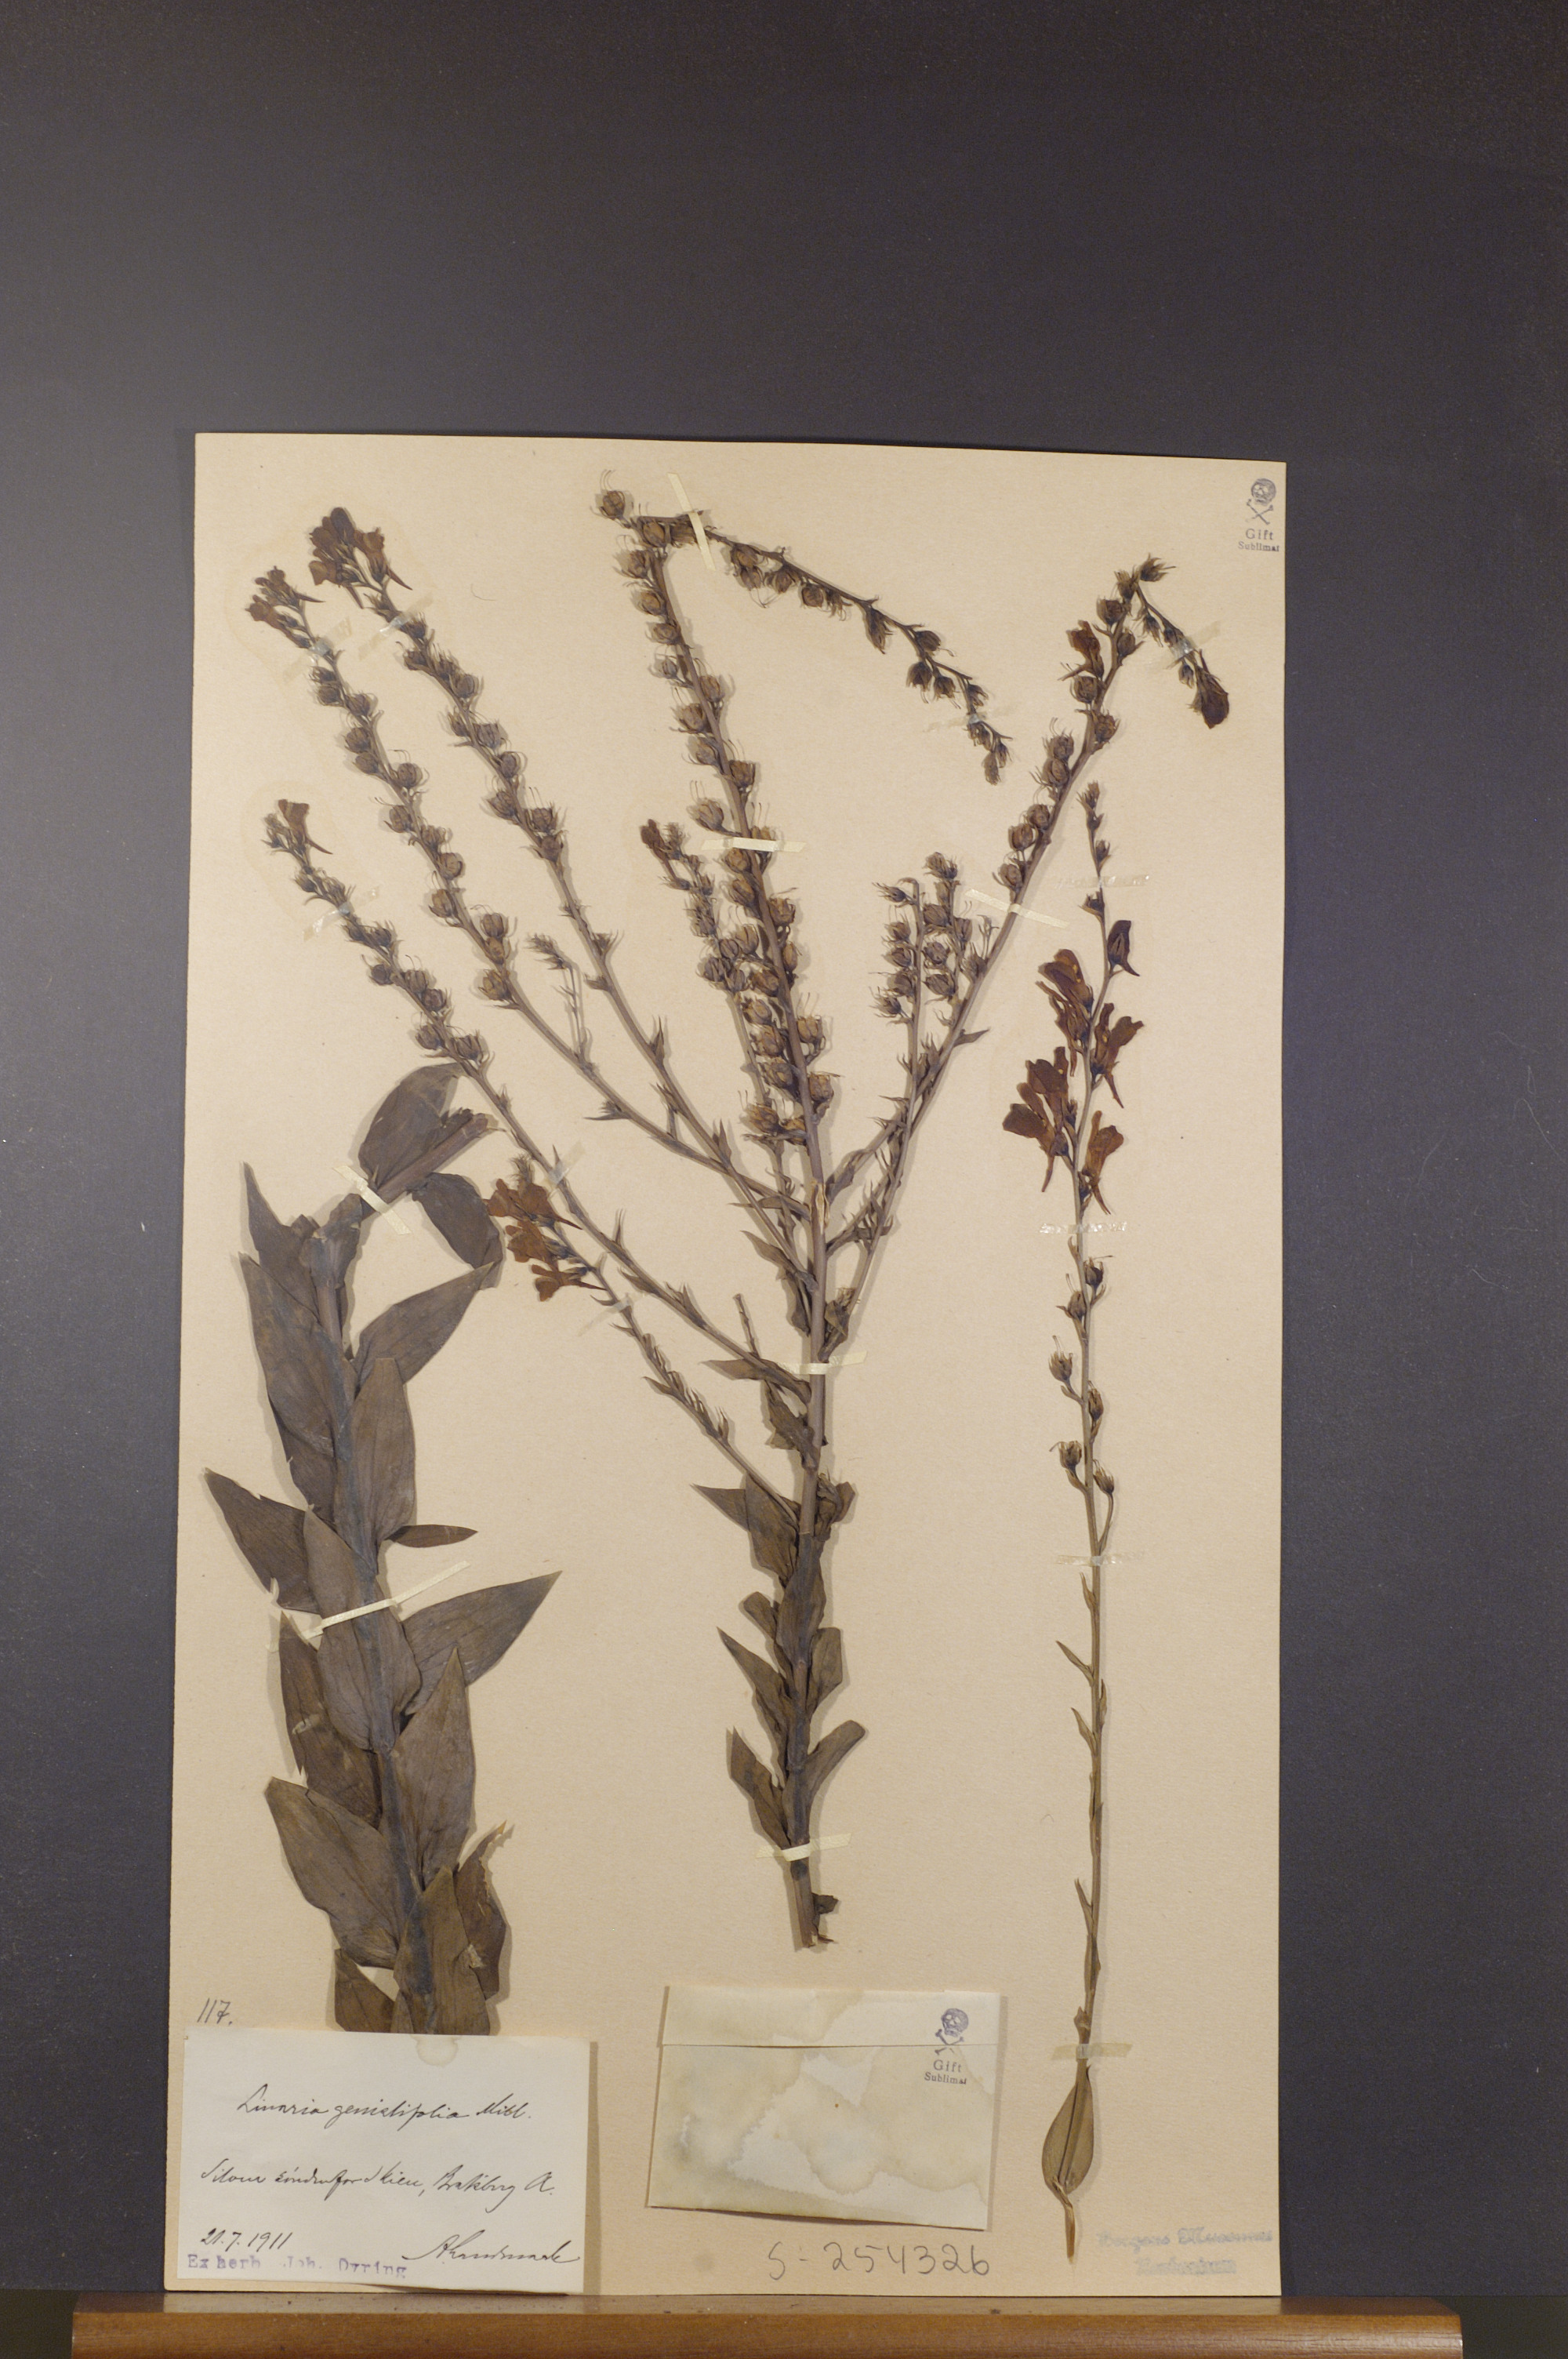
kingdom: Plantae
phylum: Tracheophyta
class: Magnoliopsida
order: Lamiales
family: Plantaginaceae
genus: Linaria
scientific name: Linaria genistifolia
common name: Broomleaf toadflax
